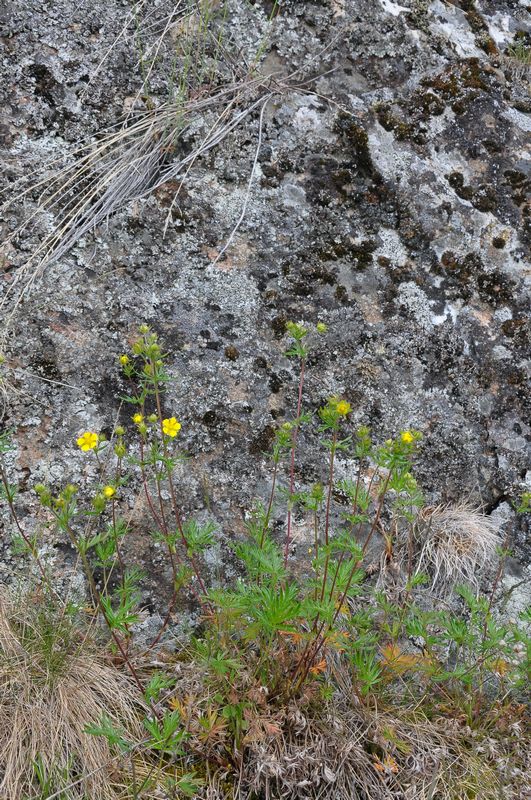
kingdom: Plantae
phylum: Tracheophyta
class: Magnoliopsida
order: Rosales
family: Rosaceae
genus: Potentilla
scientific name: Potentilla multifida
